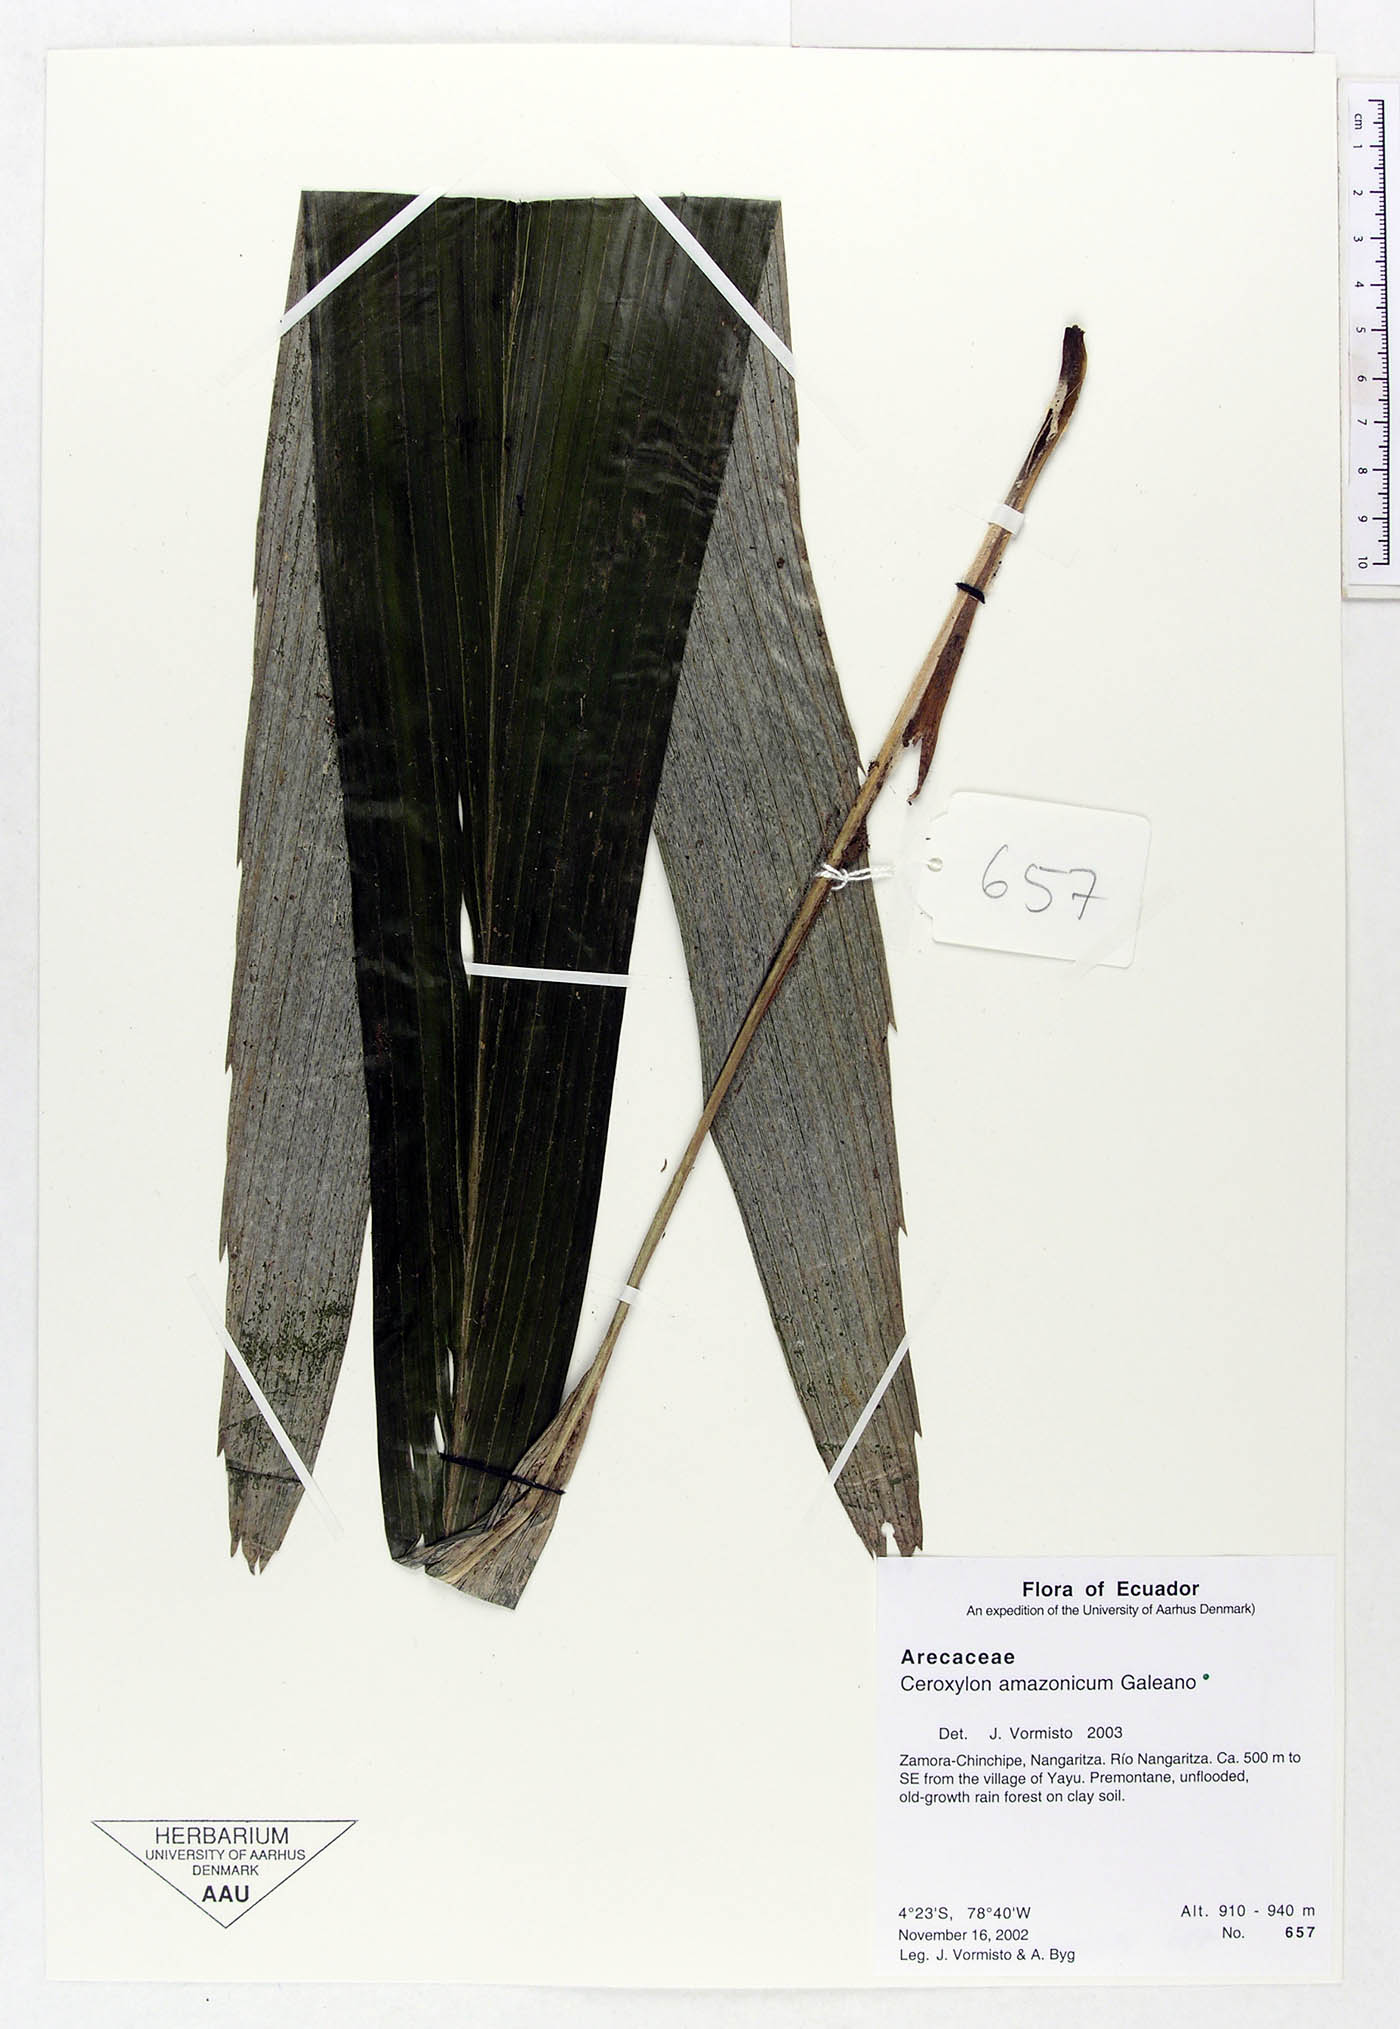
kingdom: Plantae
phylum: Tracheophyta
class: Liliopsida
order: Arecales
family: Arecaceae
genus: Ceroxylon
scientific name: Ceroxylon amazonicum
